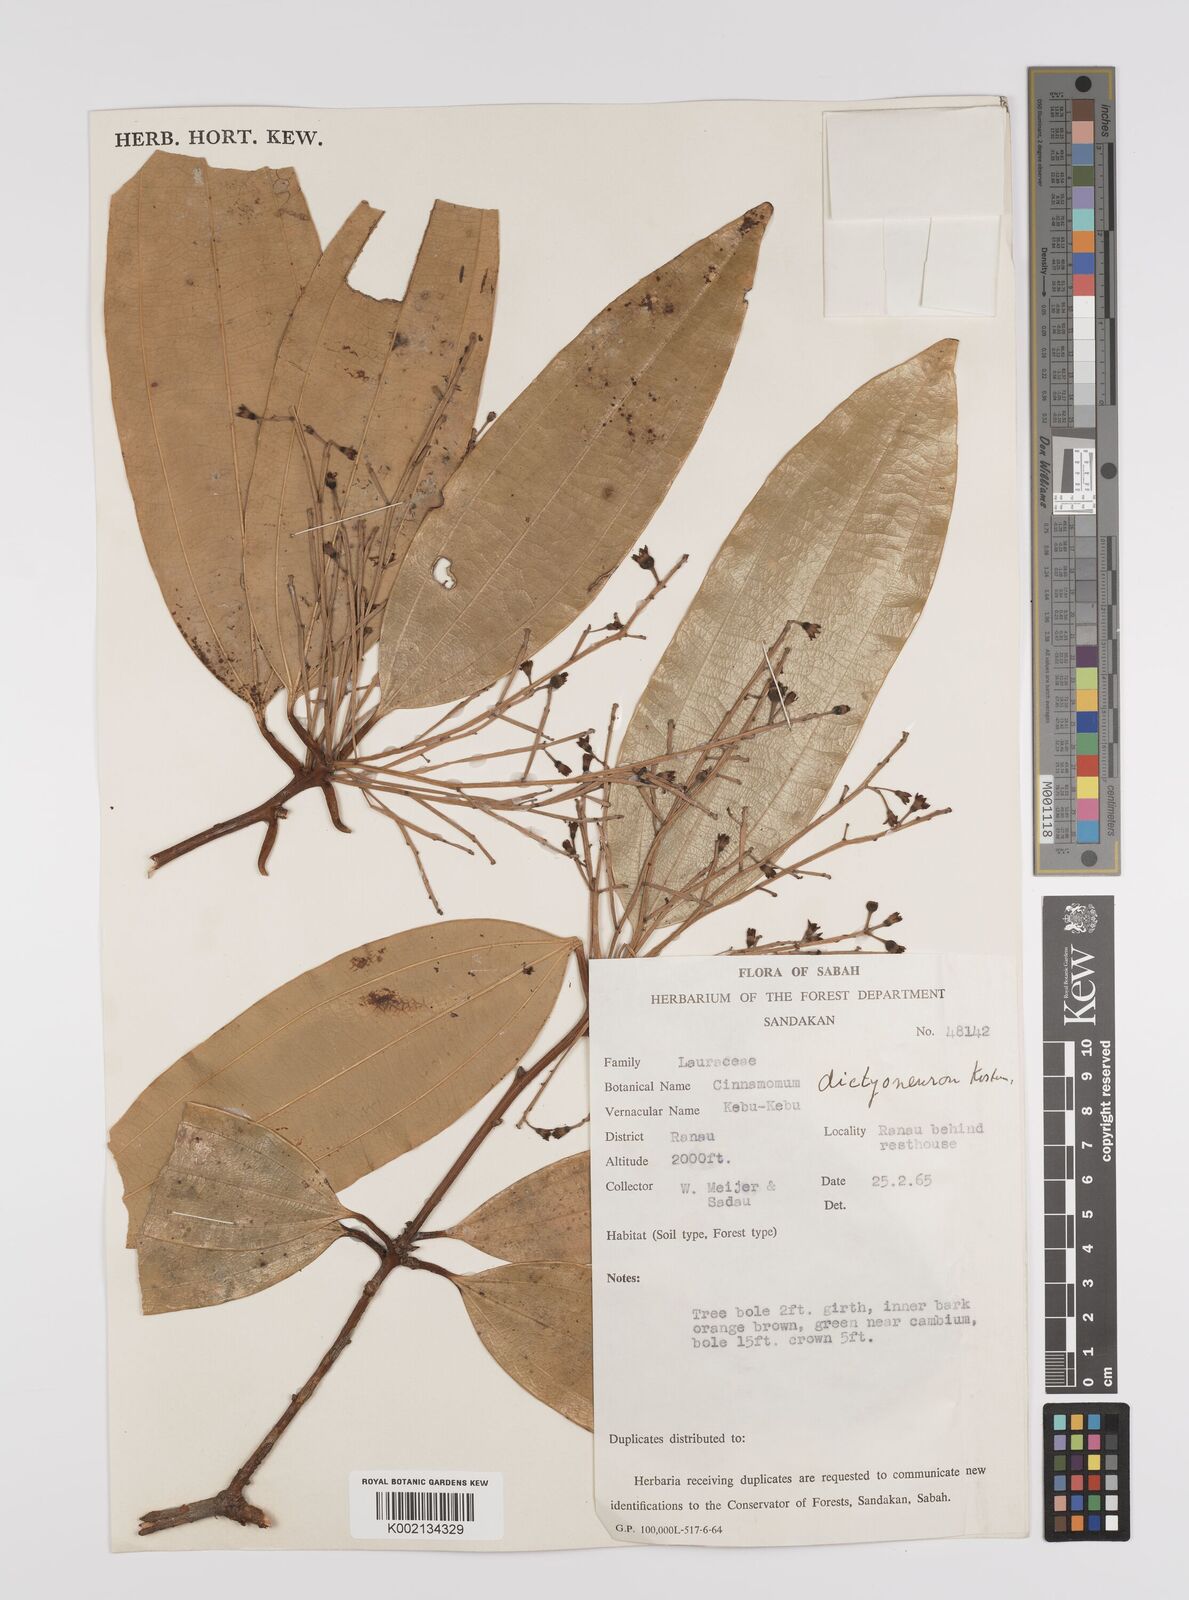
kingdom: Plantae
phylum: Tracheophyta
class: Magnoliopsida
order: Laurales
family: Lauraceae
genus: Cinnamomum
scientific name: Cinnamomum racemosum
